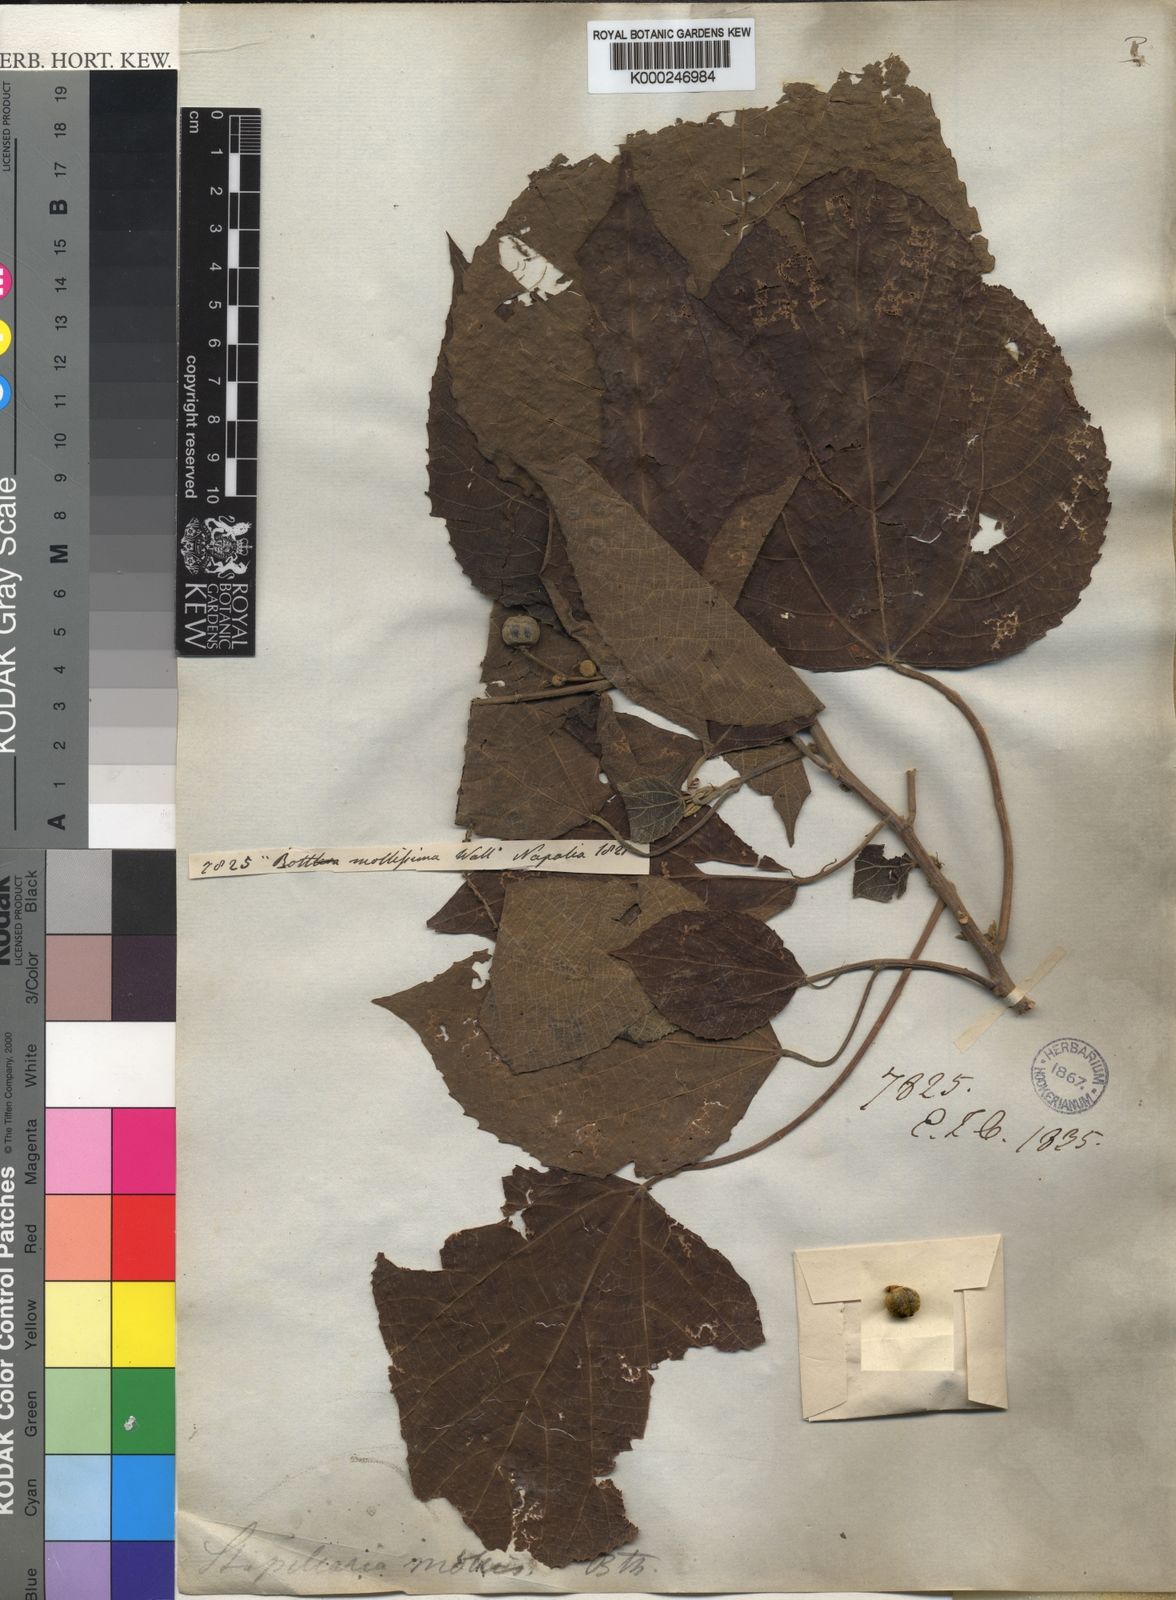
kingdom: Plantae
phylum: Tracheophyta
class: Magnoliopsida
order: Malpighiales
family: Euphorbiaceae
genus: Alchornea
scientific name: Alchornea
